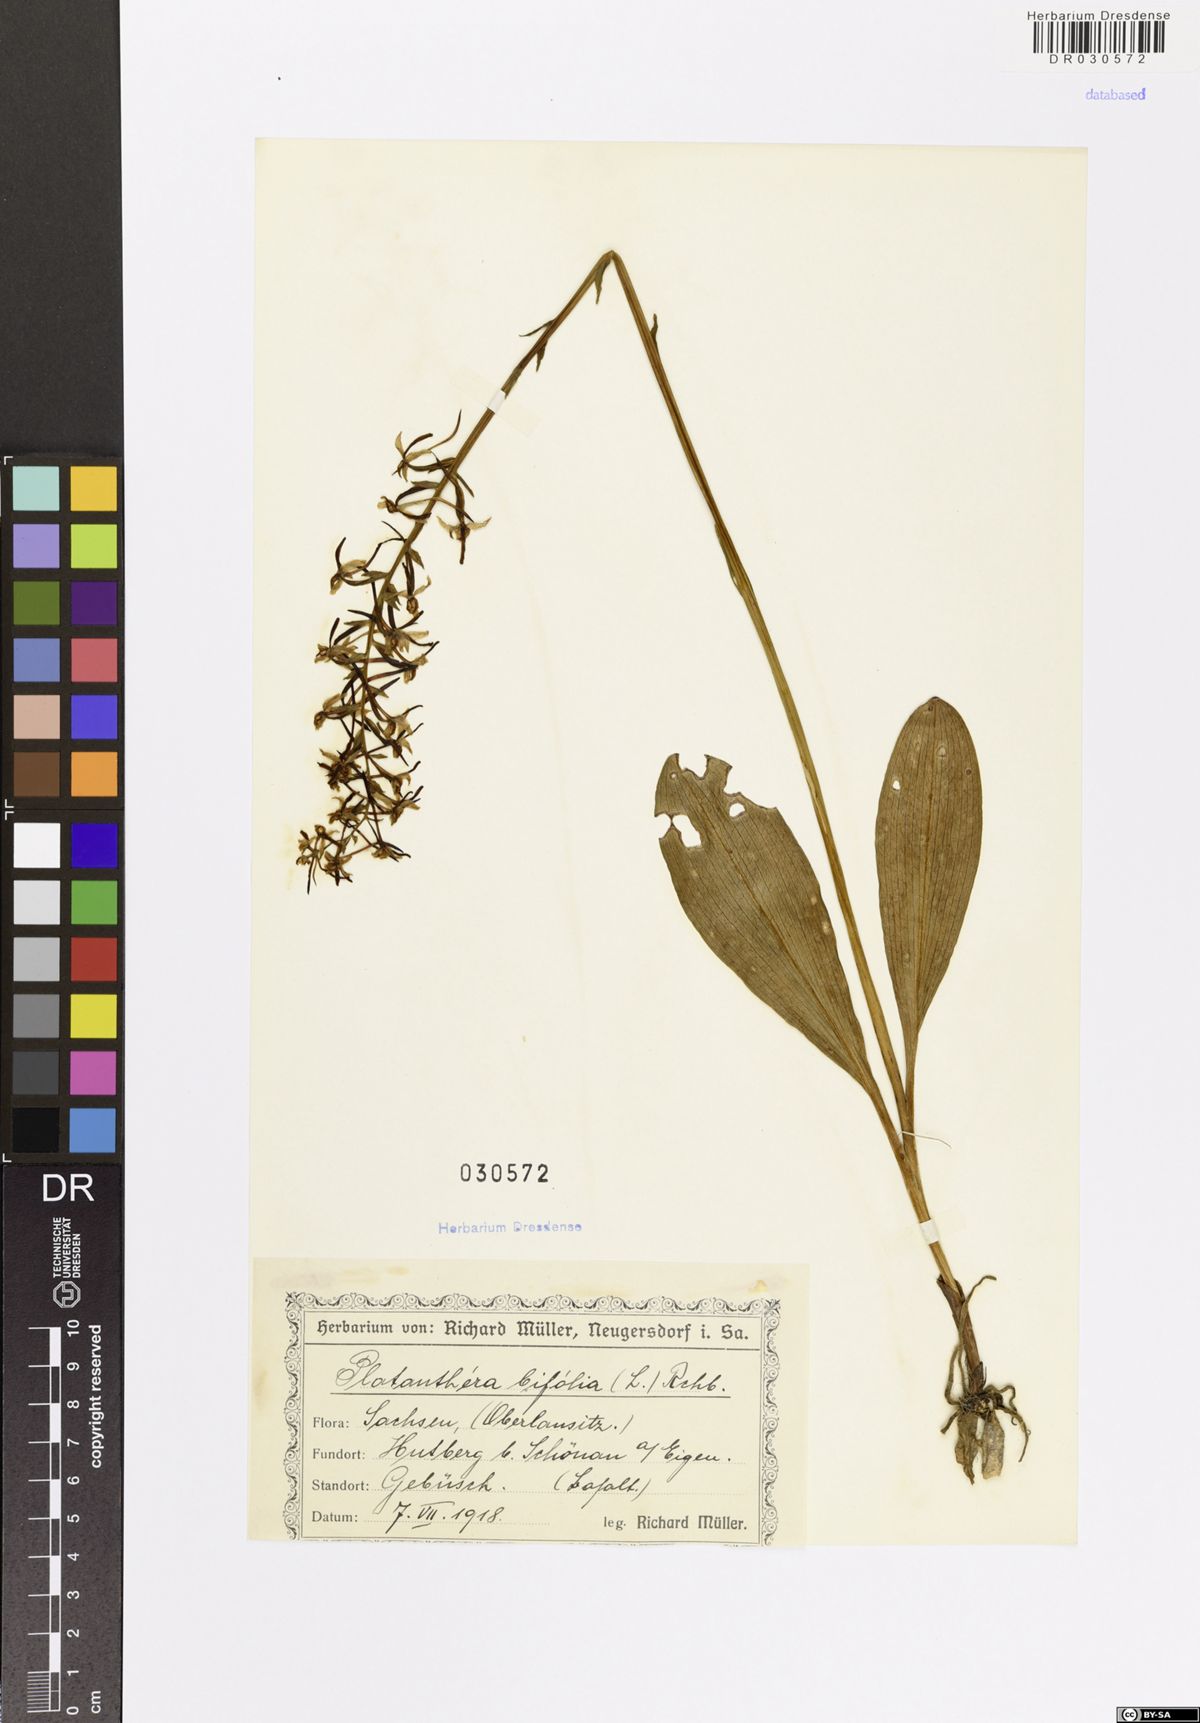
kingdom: Plantae
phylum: Tracheophyta
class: Liliopsida
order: Asparagales
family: Orchidaceae
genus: Platanthera
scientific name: Platanthera bifolia
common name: Lesser butterfly-orchid
